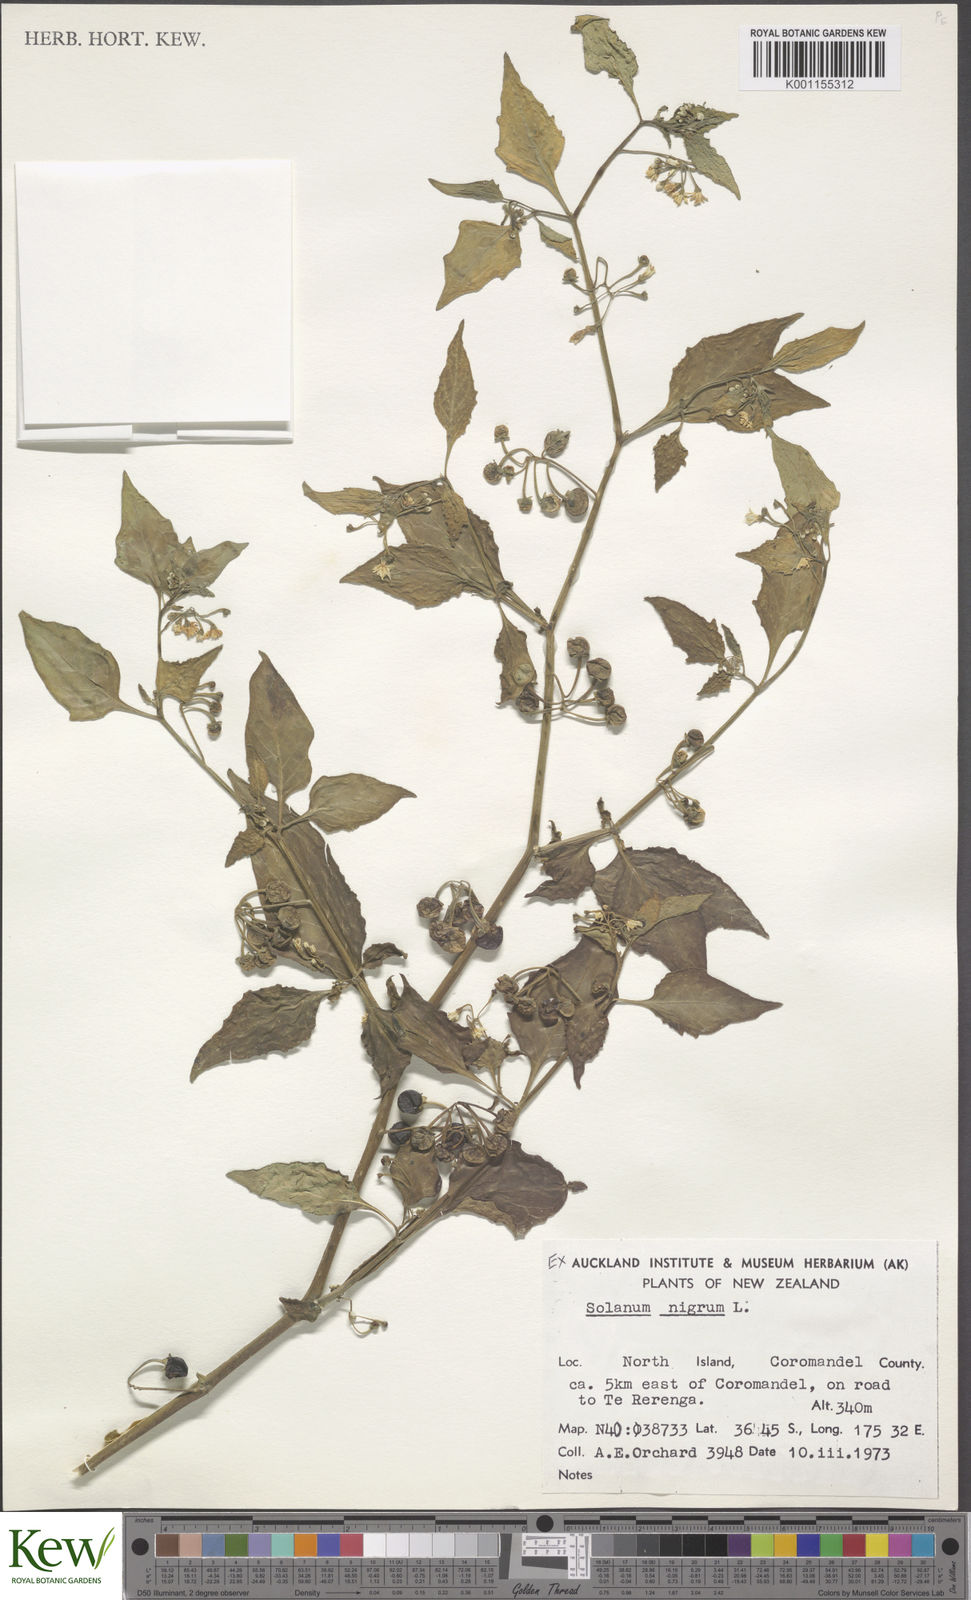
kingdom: Plantae
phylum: Tracheophyta
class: Magnoliopsida
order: Solanales
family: Solanaceae
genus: Solanum
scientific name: Solanum nigrum
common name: Black nightshade
